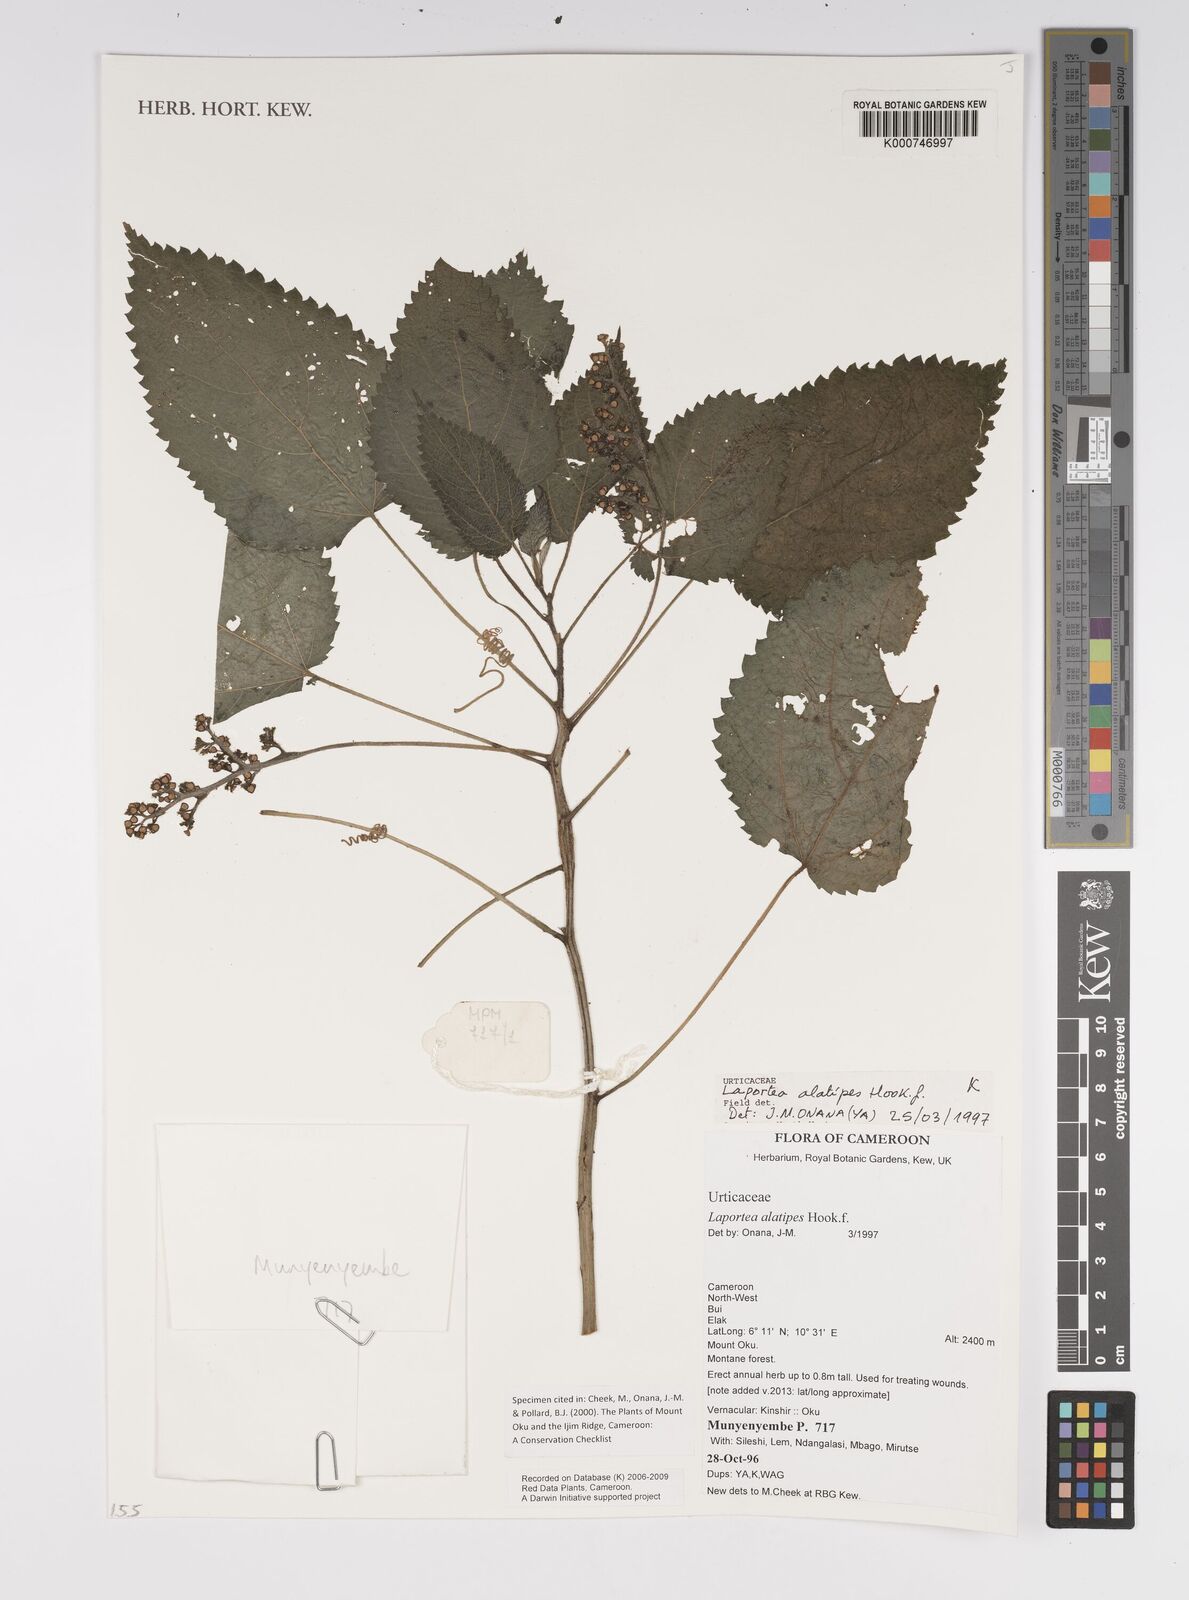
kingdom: Plantae
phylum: Tracheophyta
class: Magnoliopsida
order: Rosales
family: Urticaceae
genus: Laportea
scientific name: Laportea alatipes
